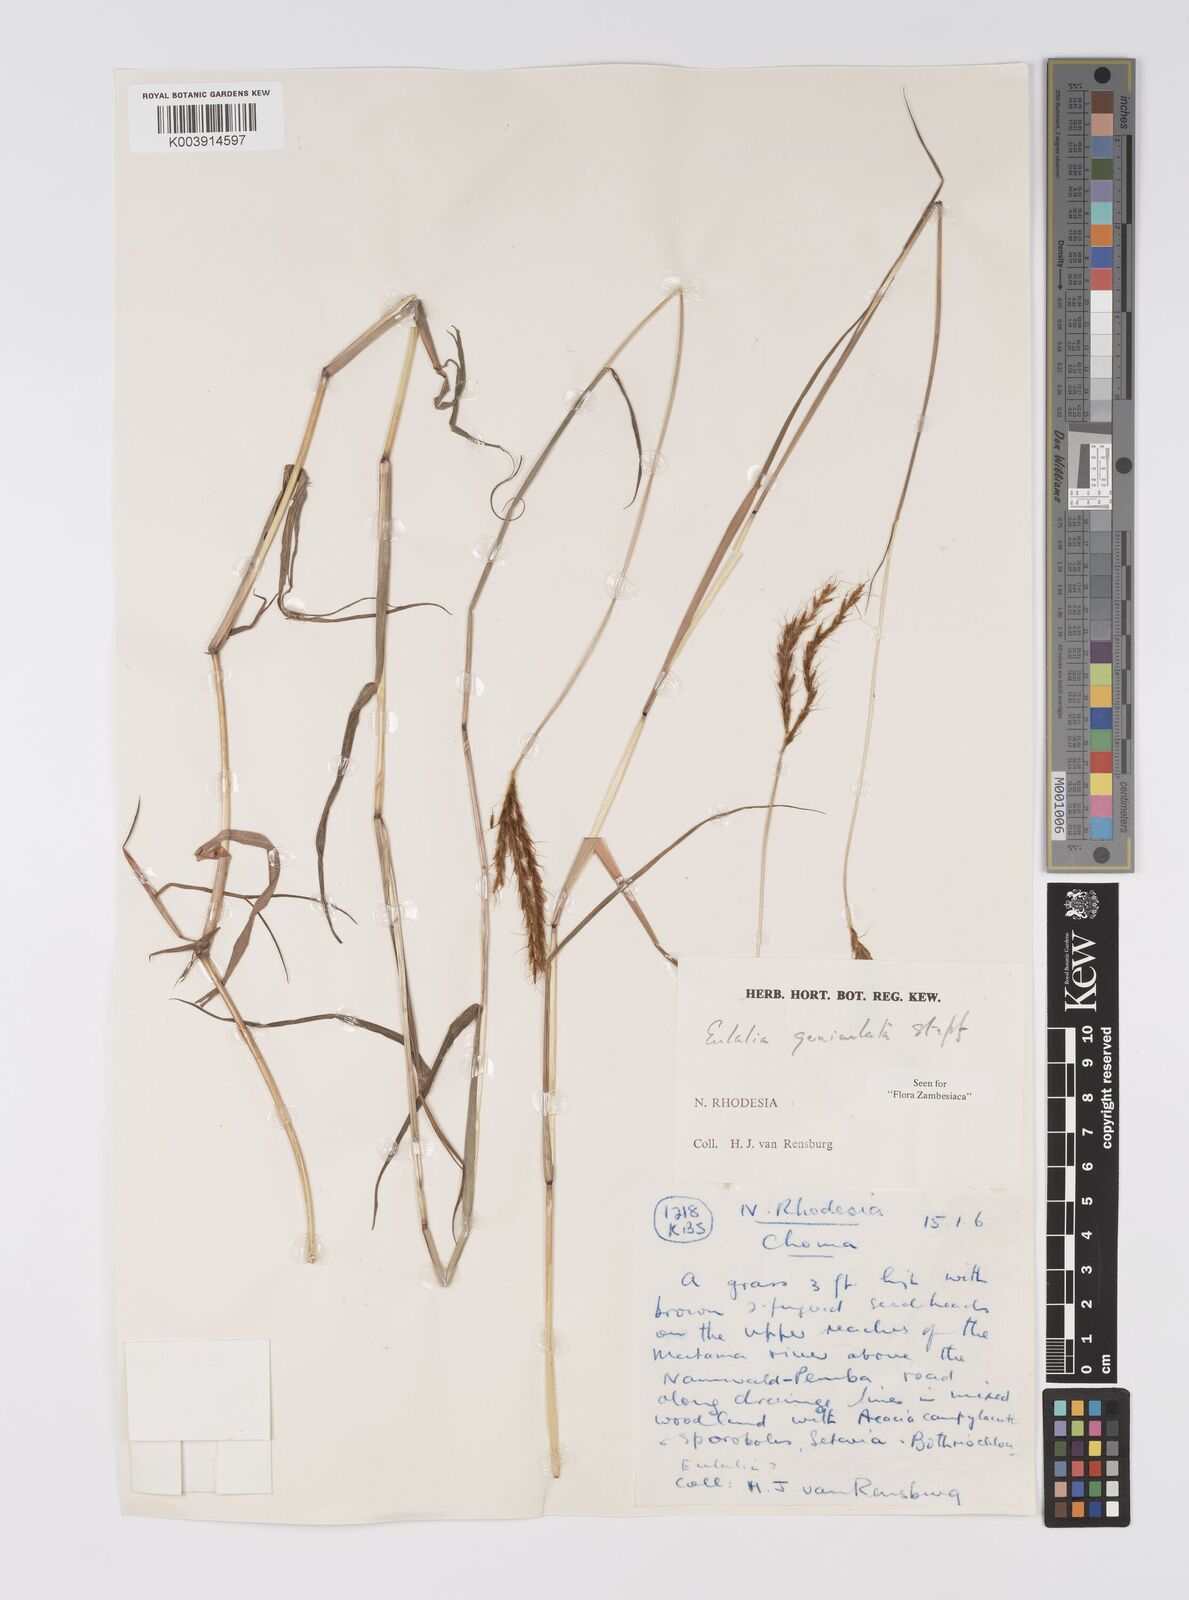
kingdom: Plantae
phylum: Tracheophyta
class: Liliopsida
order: Poales
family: Poaceae
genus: Eulalia
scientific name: Eulalia aurea
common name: Silky browntop
